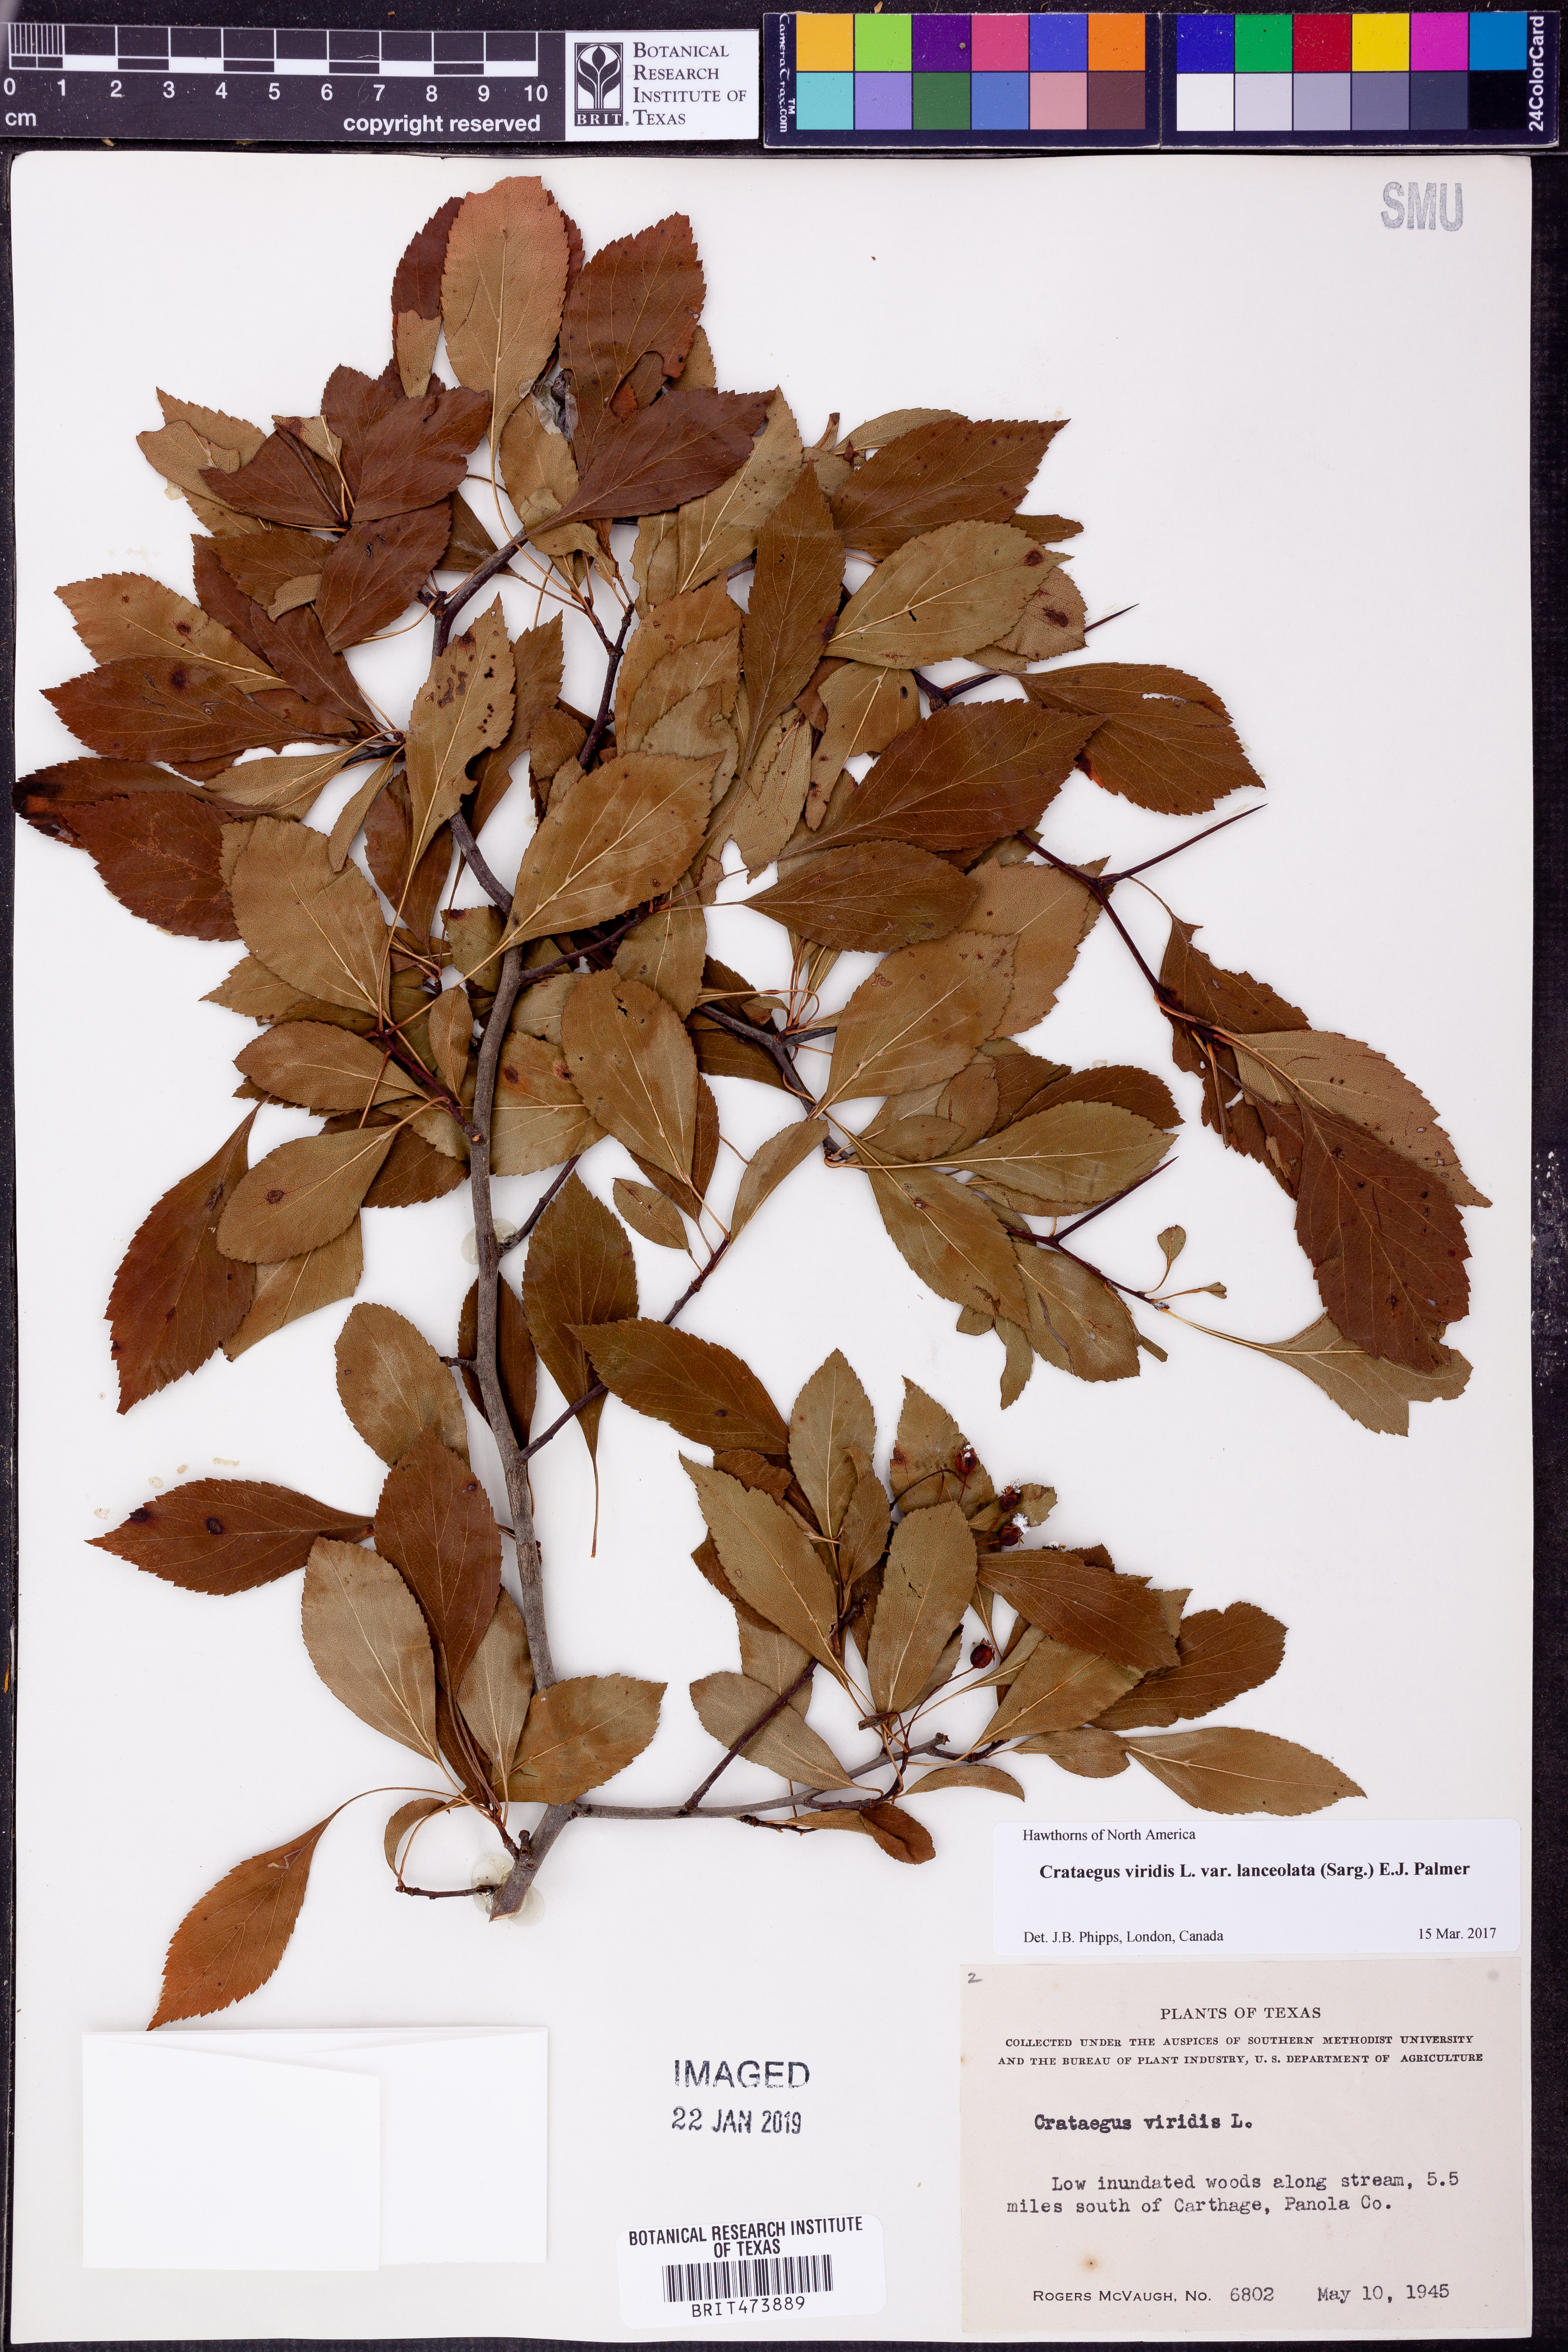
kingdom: Plantae
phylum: Tracheophyta
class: Magnoliopsida
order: Rosales
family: Rosaceae
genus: Crataegus
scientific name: Crataegus viridis
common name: Southernthorn
